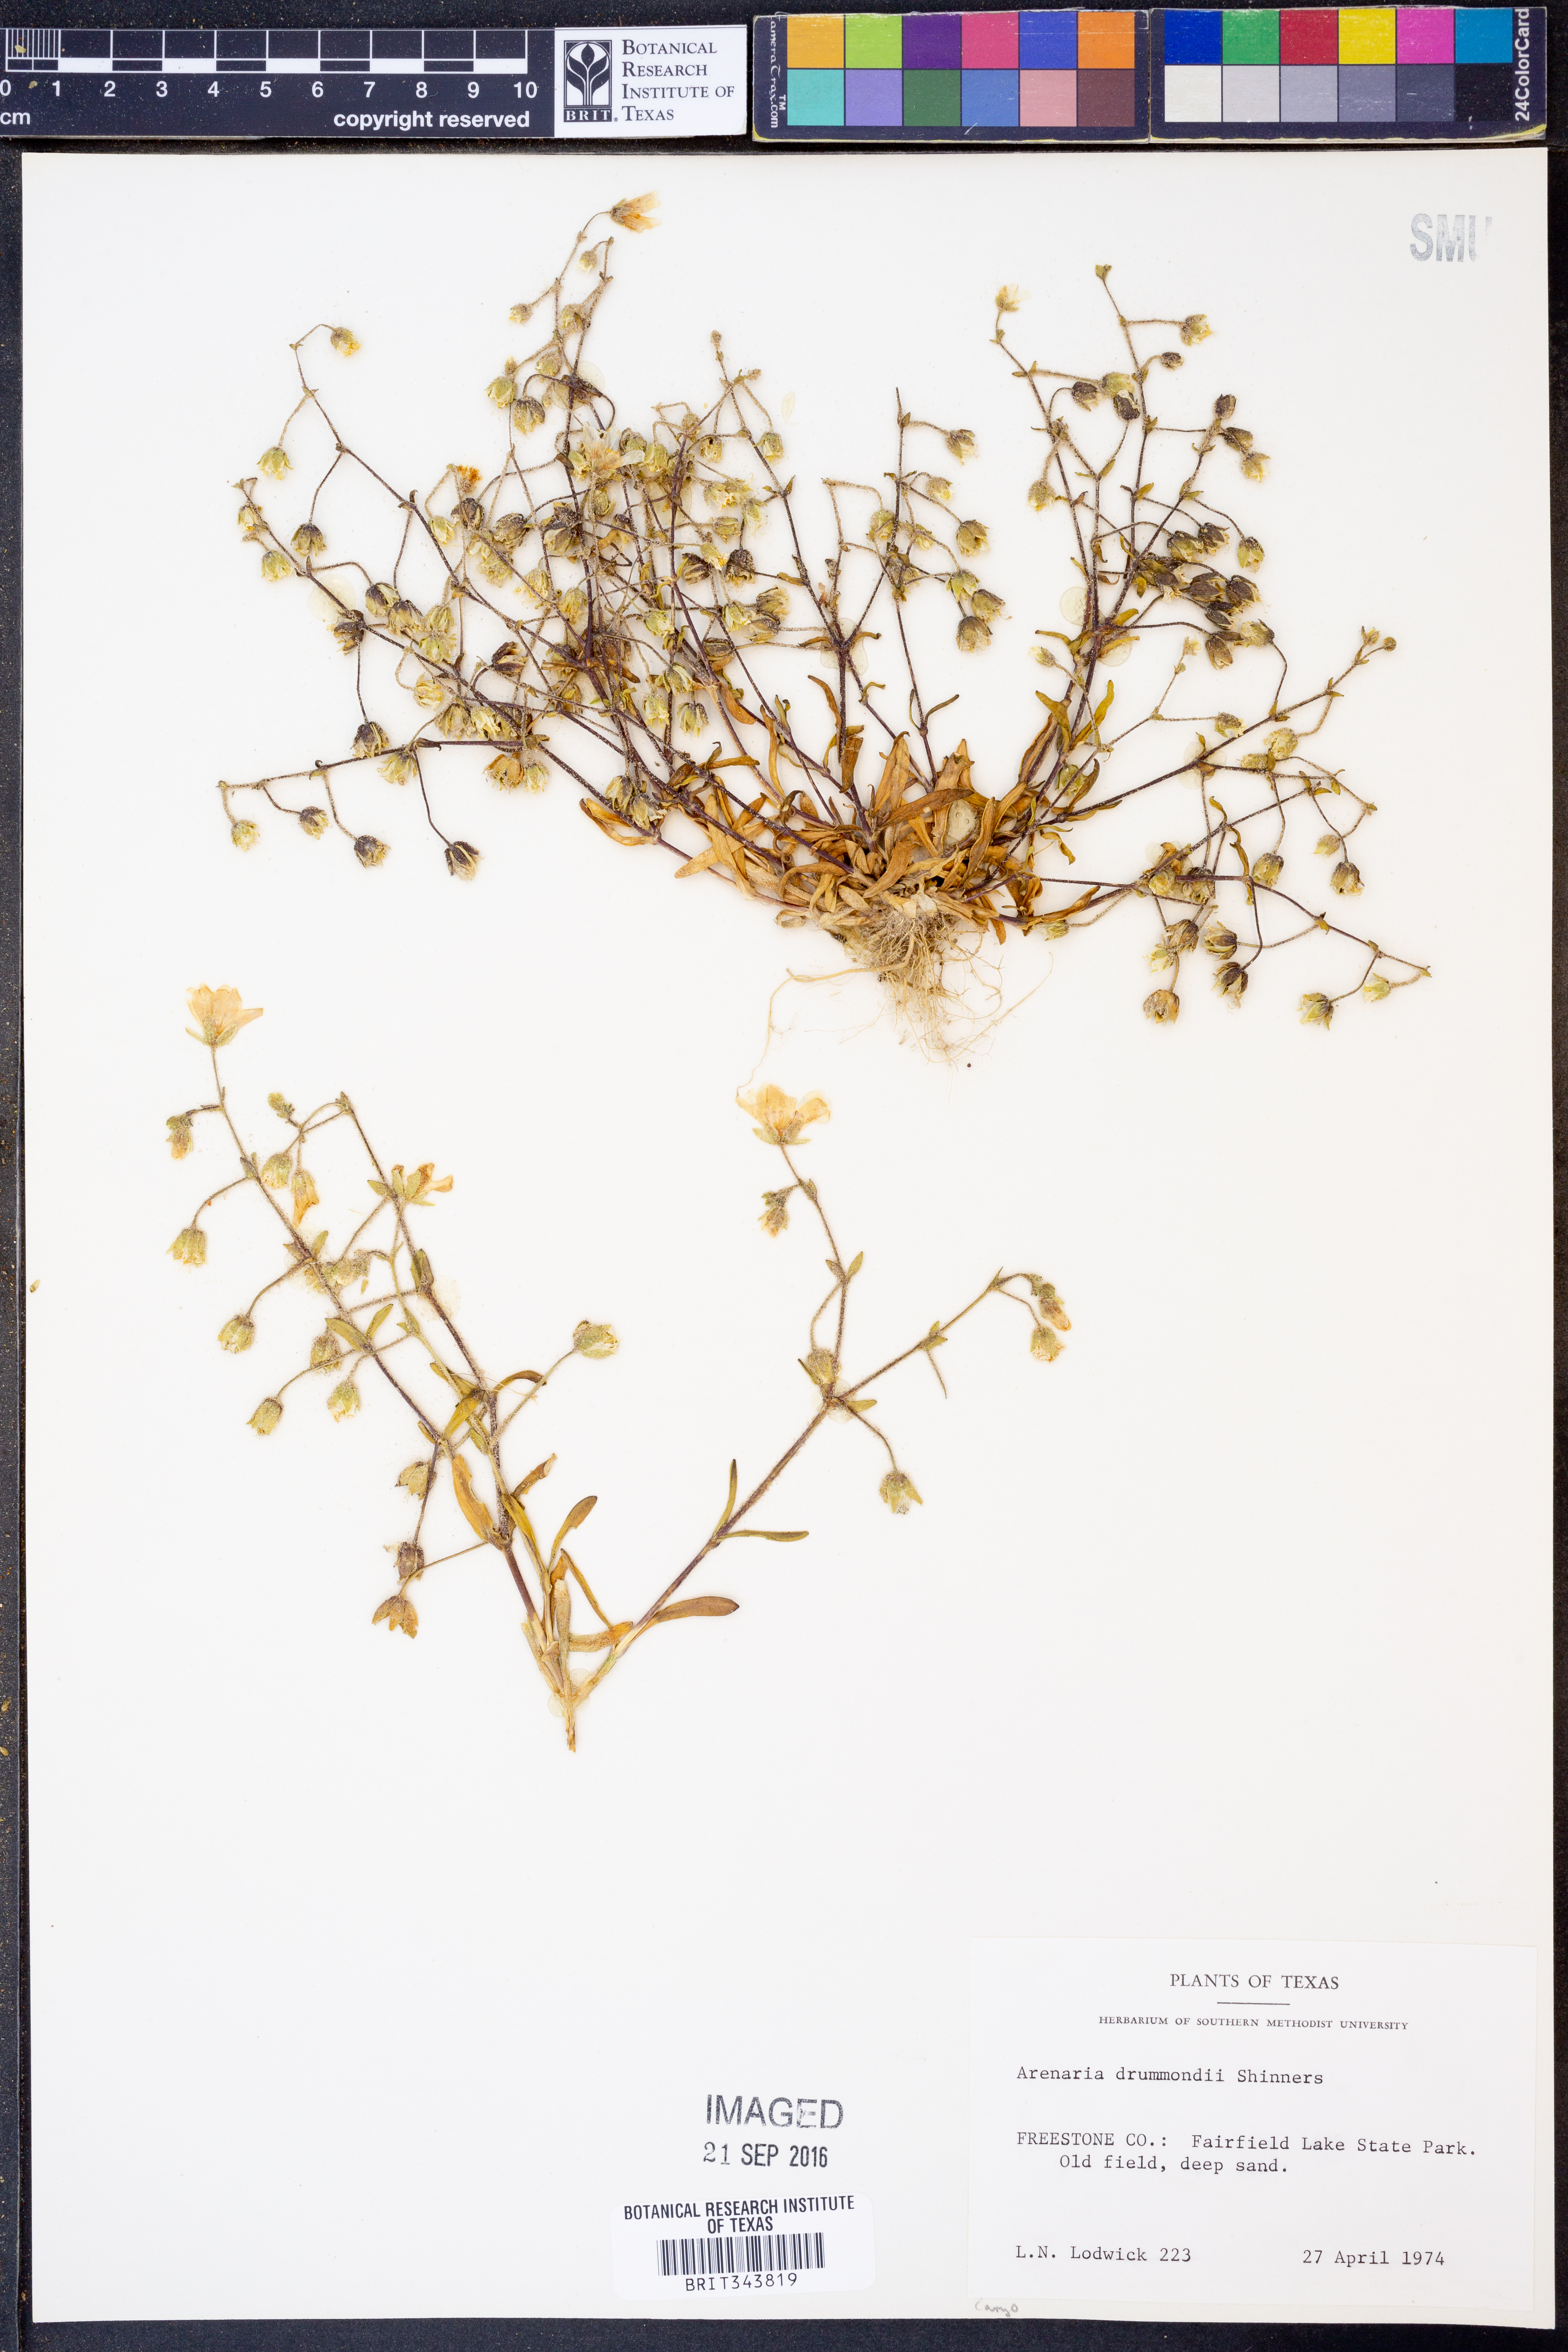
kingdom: Plantae
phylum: Tracheophyta
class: Magnoliopsida
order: Caryophyllales
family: Caryophyllaceae
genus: Geocarpon
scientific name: Geocarpon nuttallii
